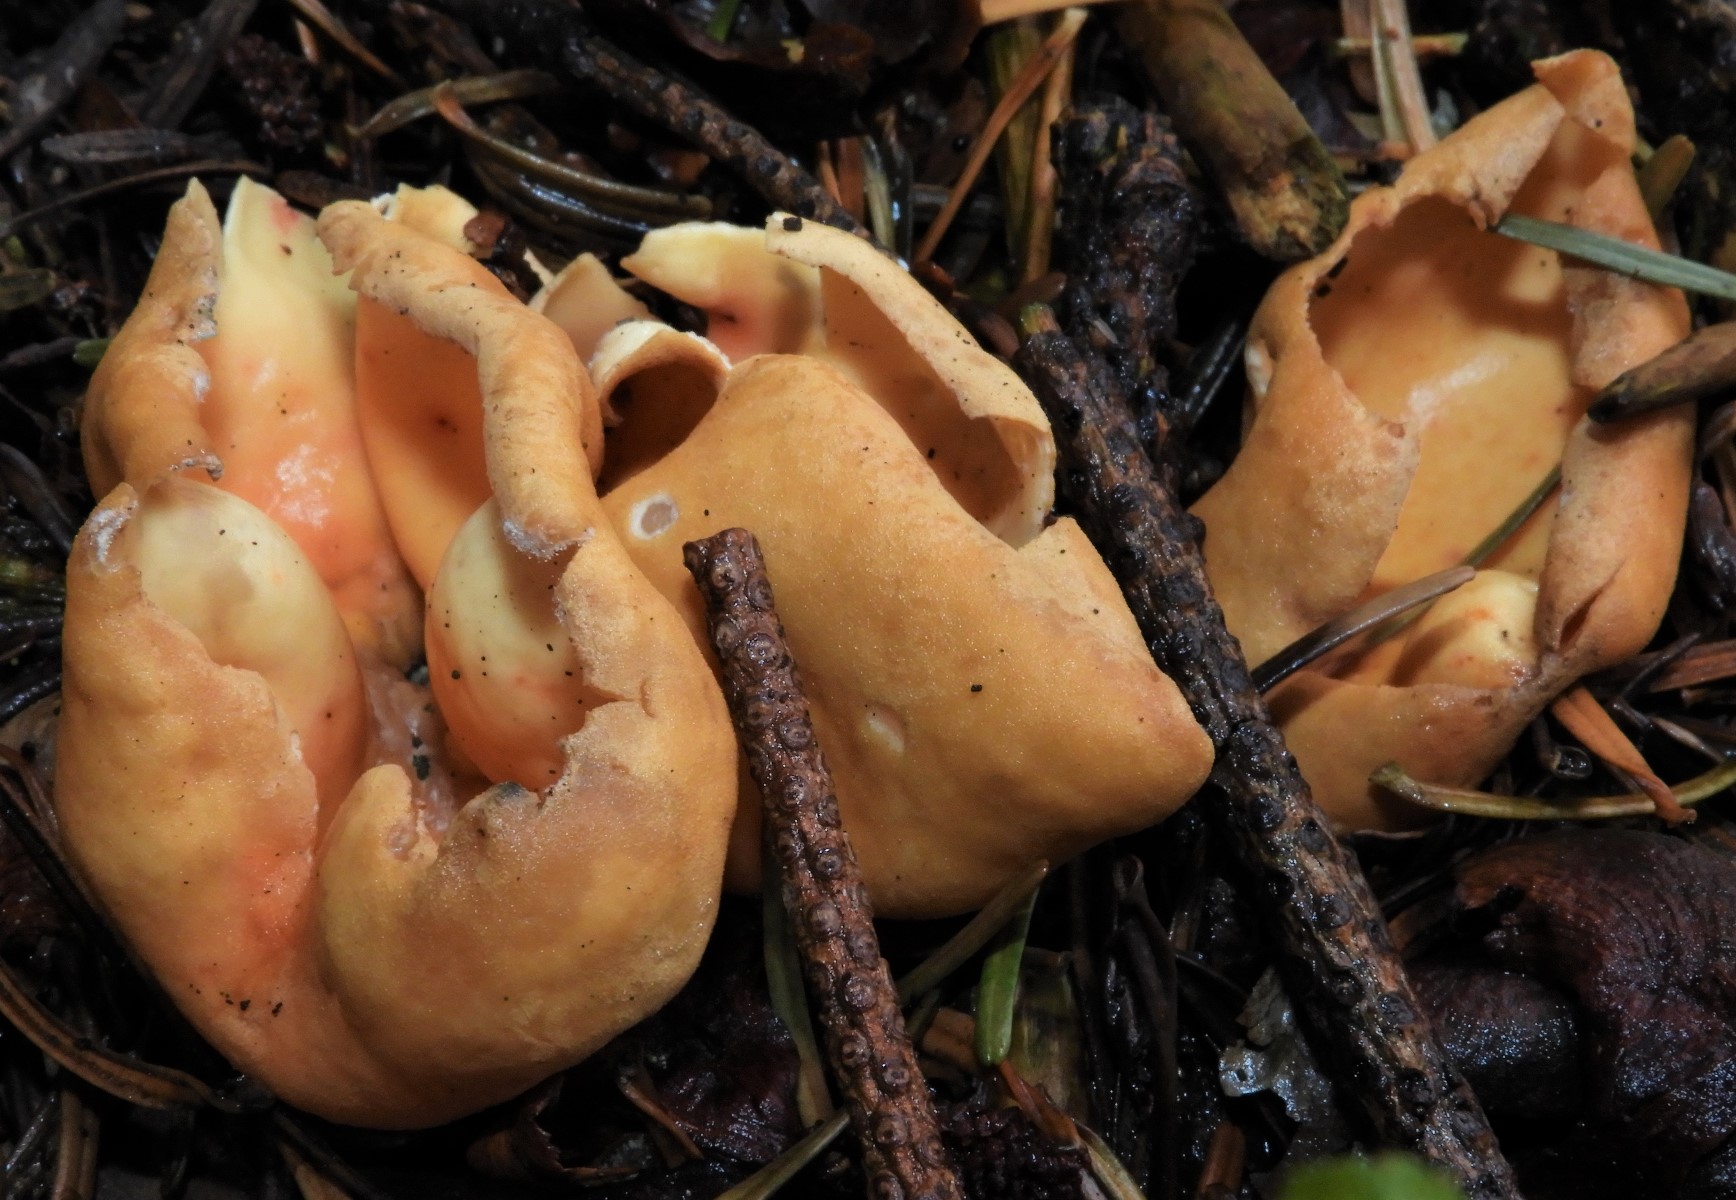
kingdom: Fungi
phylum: Ascomycota
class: Pezizomycetes
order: Pezizales
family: Otideaceae
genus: Otidea
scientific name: Otidea onotica
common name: æsel-ørebæger
